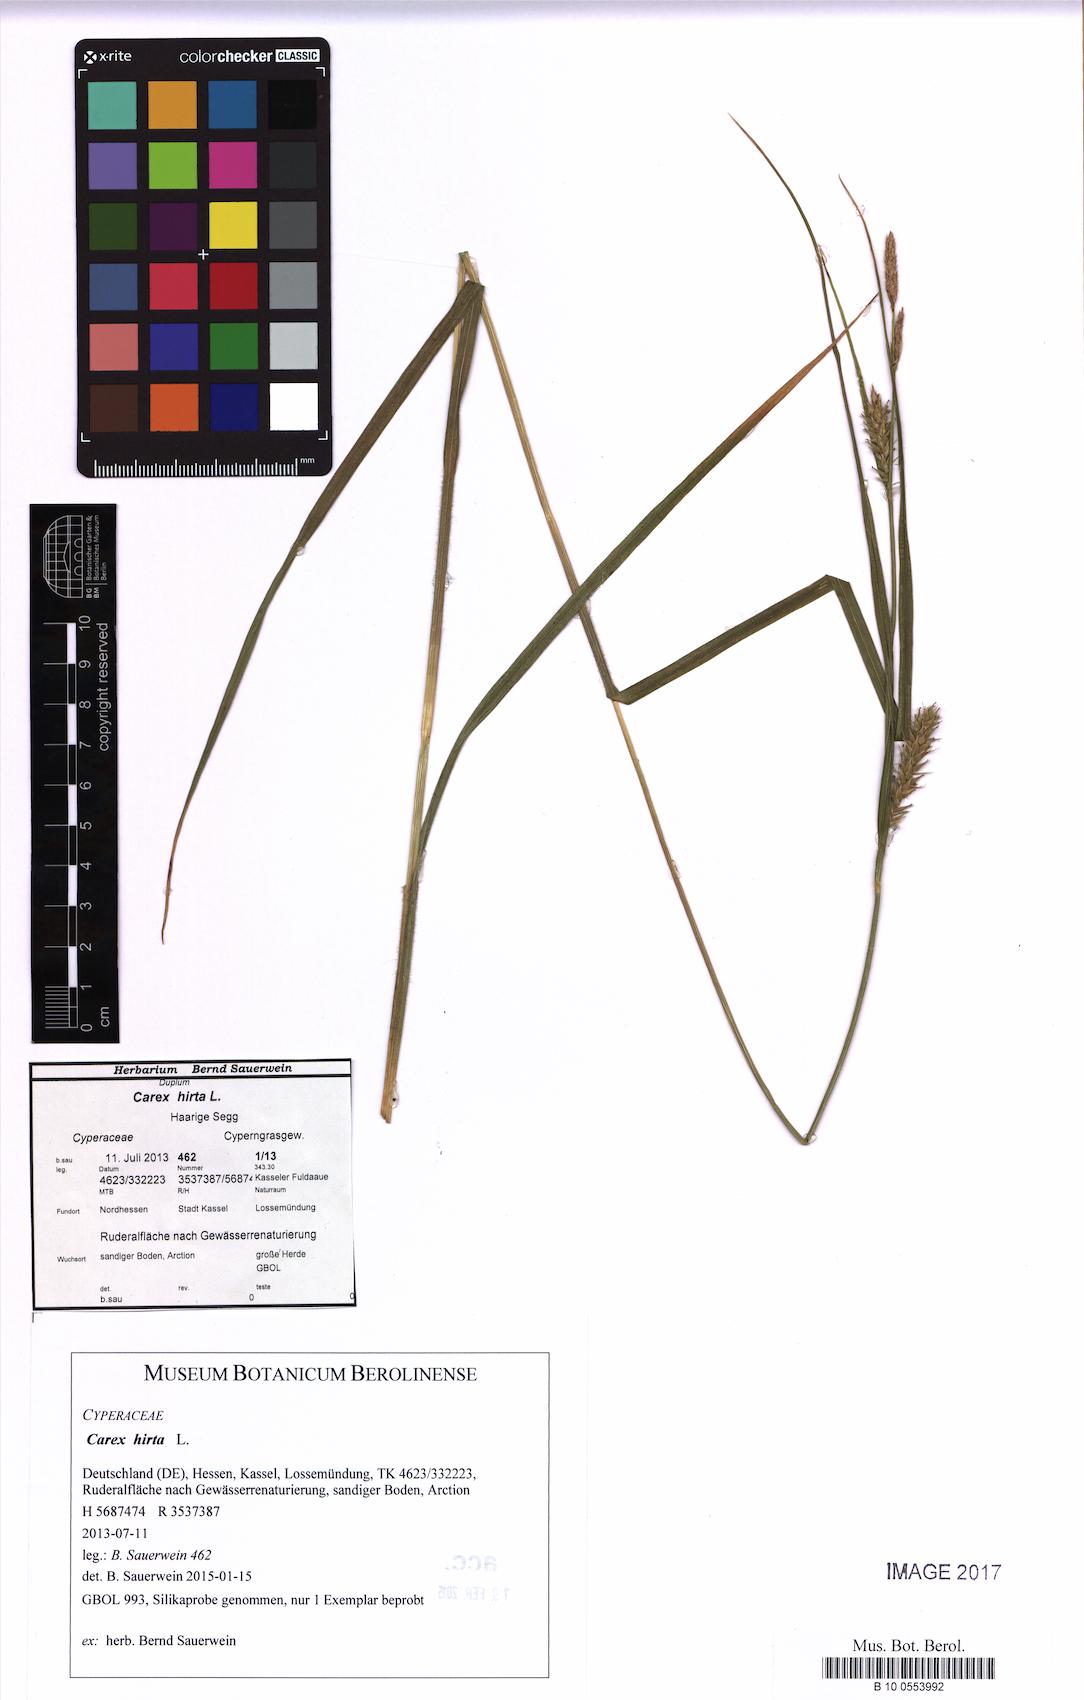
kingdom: Plantae
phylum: Tracheophyta
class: Liliopsida
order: Poales
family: Cyperaceae
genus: Carex
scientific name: Carex hirta
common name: Hairy sedge
